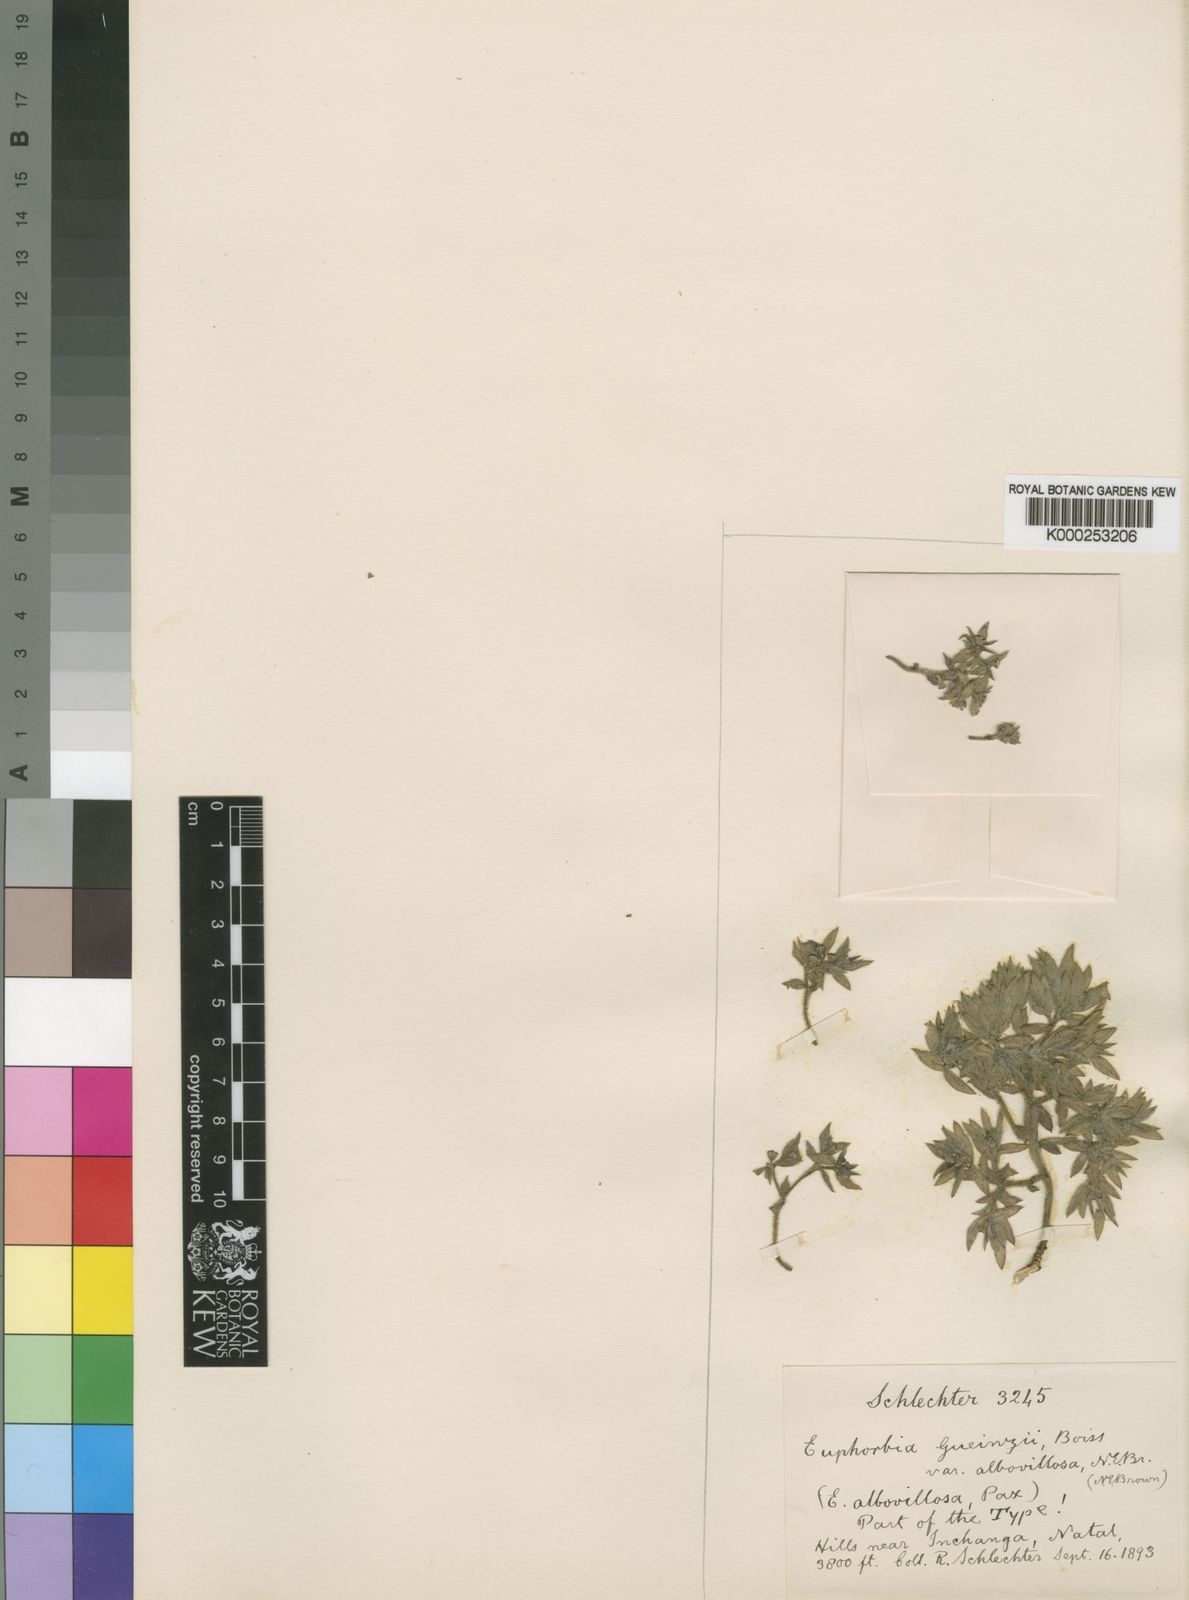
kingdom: Plantae
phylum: Tracheophyta
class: Magnoliopsida
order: Malpighiales
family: Euphorbiaceae
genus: Euphorbia
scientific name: Euphorbia gueinzii
